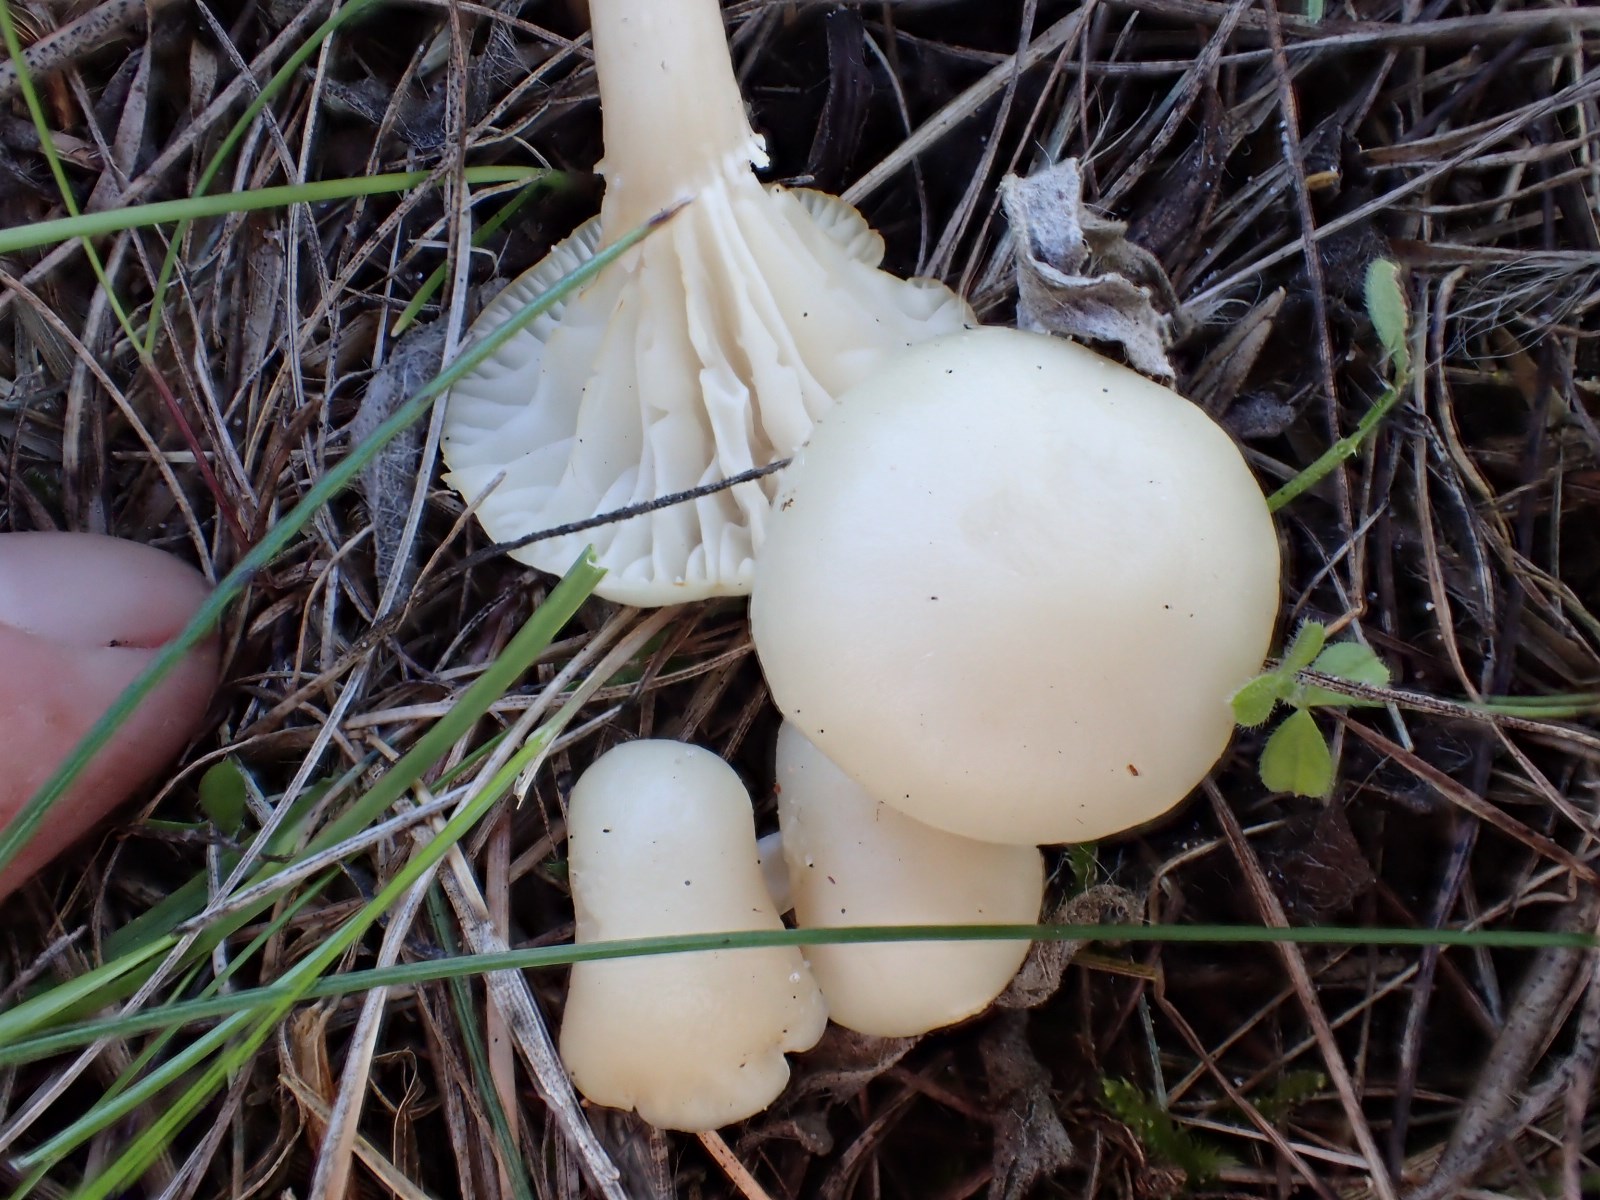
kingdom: Fungi
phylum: Basidiomycota
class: Agaricomycetes
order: Agaricales
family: Hygrophoraceae
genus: Cuphophyllus
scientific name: Cuphophyllus virgineus
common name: snehvid vokshat
